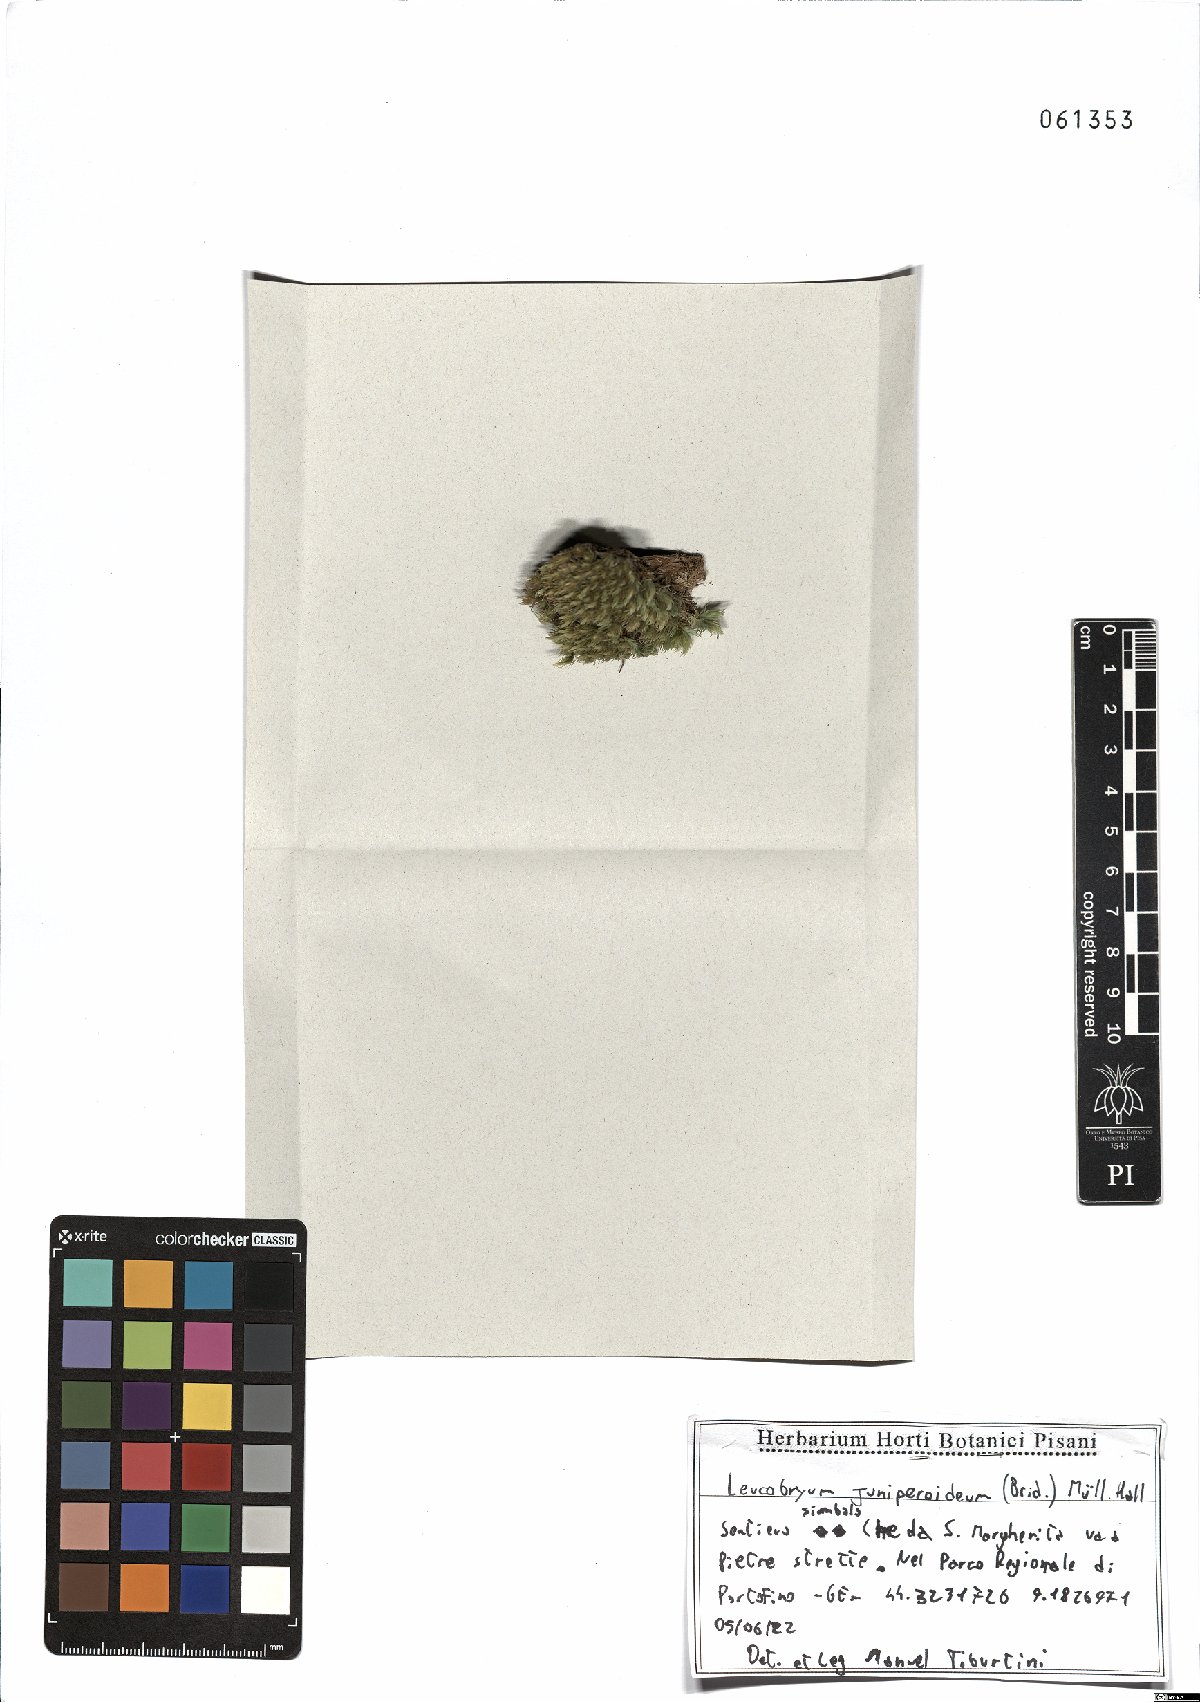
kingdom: Plantae
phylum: Bryophyta
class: Bryopsida
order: Dicranales
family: Leucobryaceae
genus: Leucobryum
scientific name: Leucobryum juniperoideum
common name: Smaller white-moss
